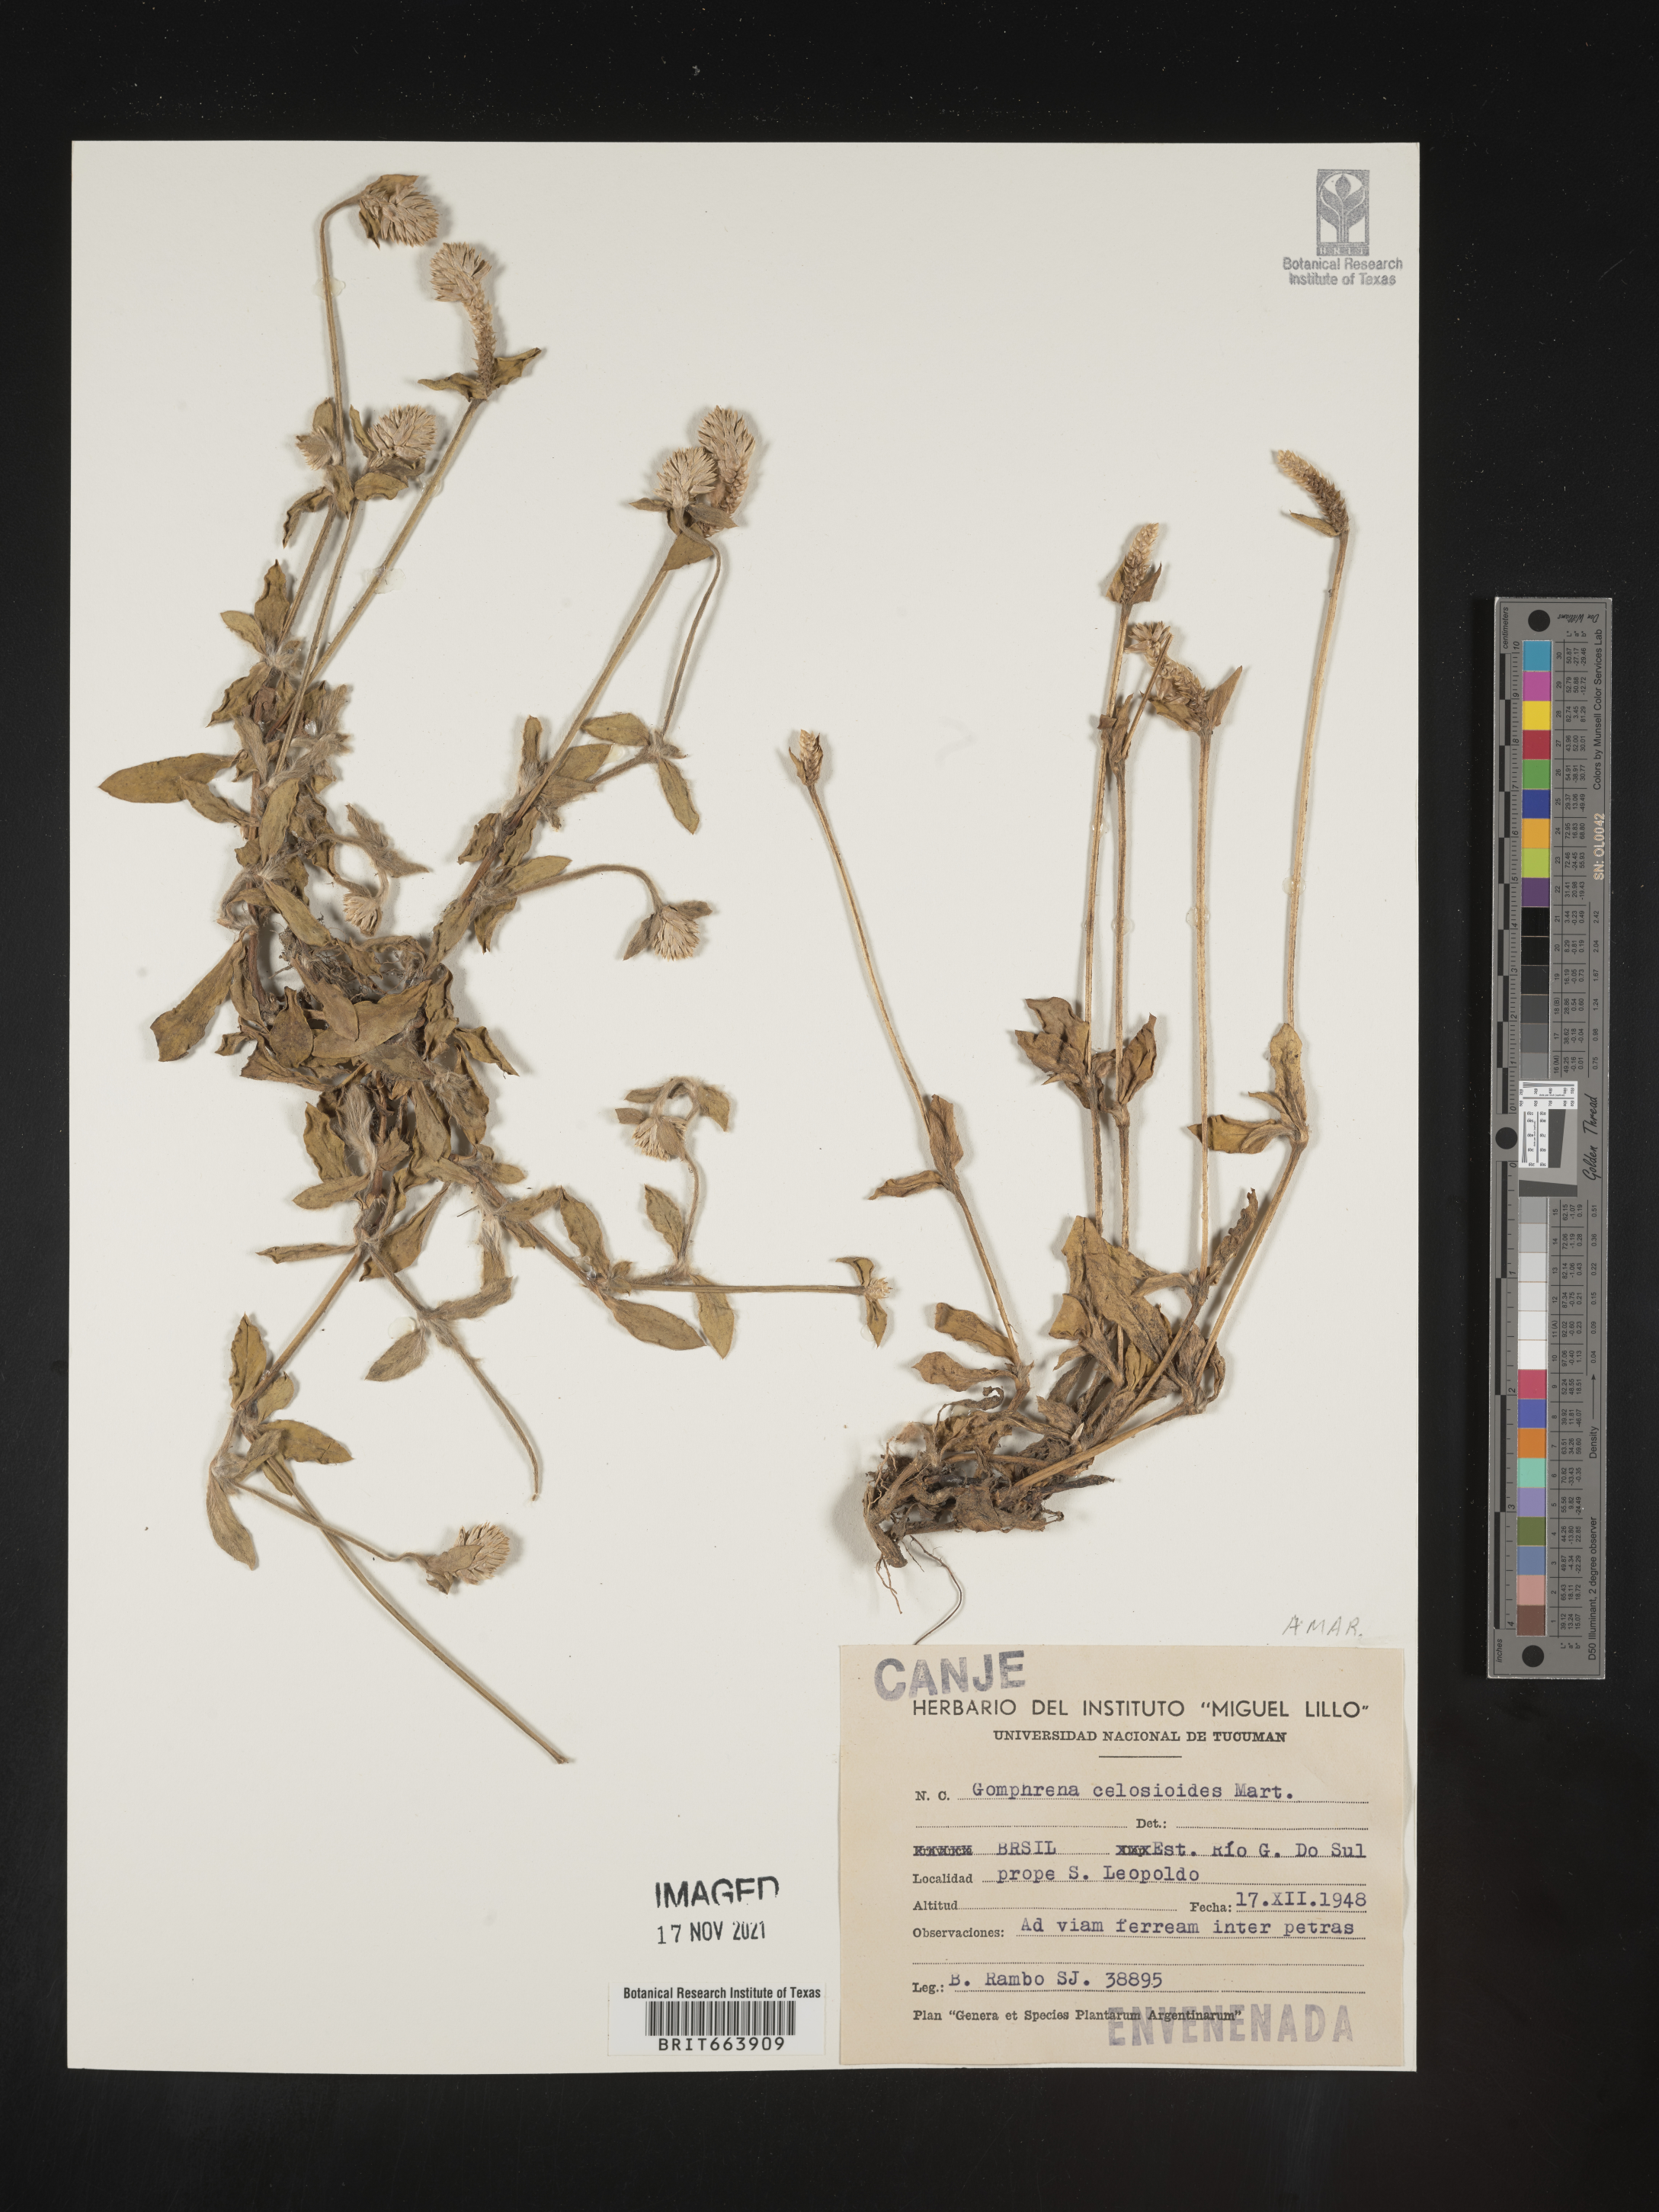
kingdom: Plantae
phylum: Tracheophyta
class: Magnoliopsida
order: Caryophyllales
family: Amaranthaceae
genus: Gomphrena
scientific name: Gomphrena
